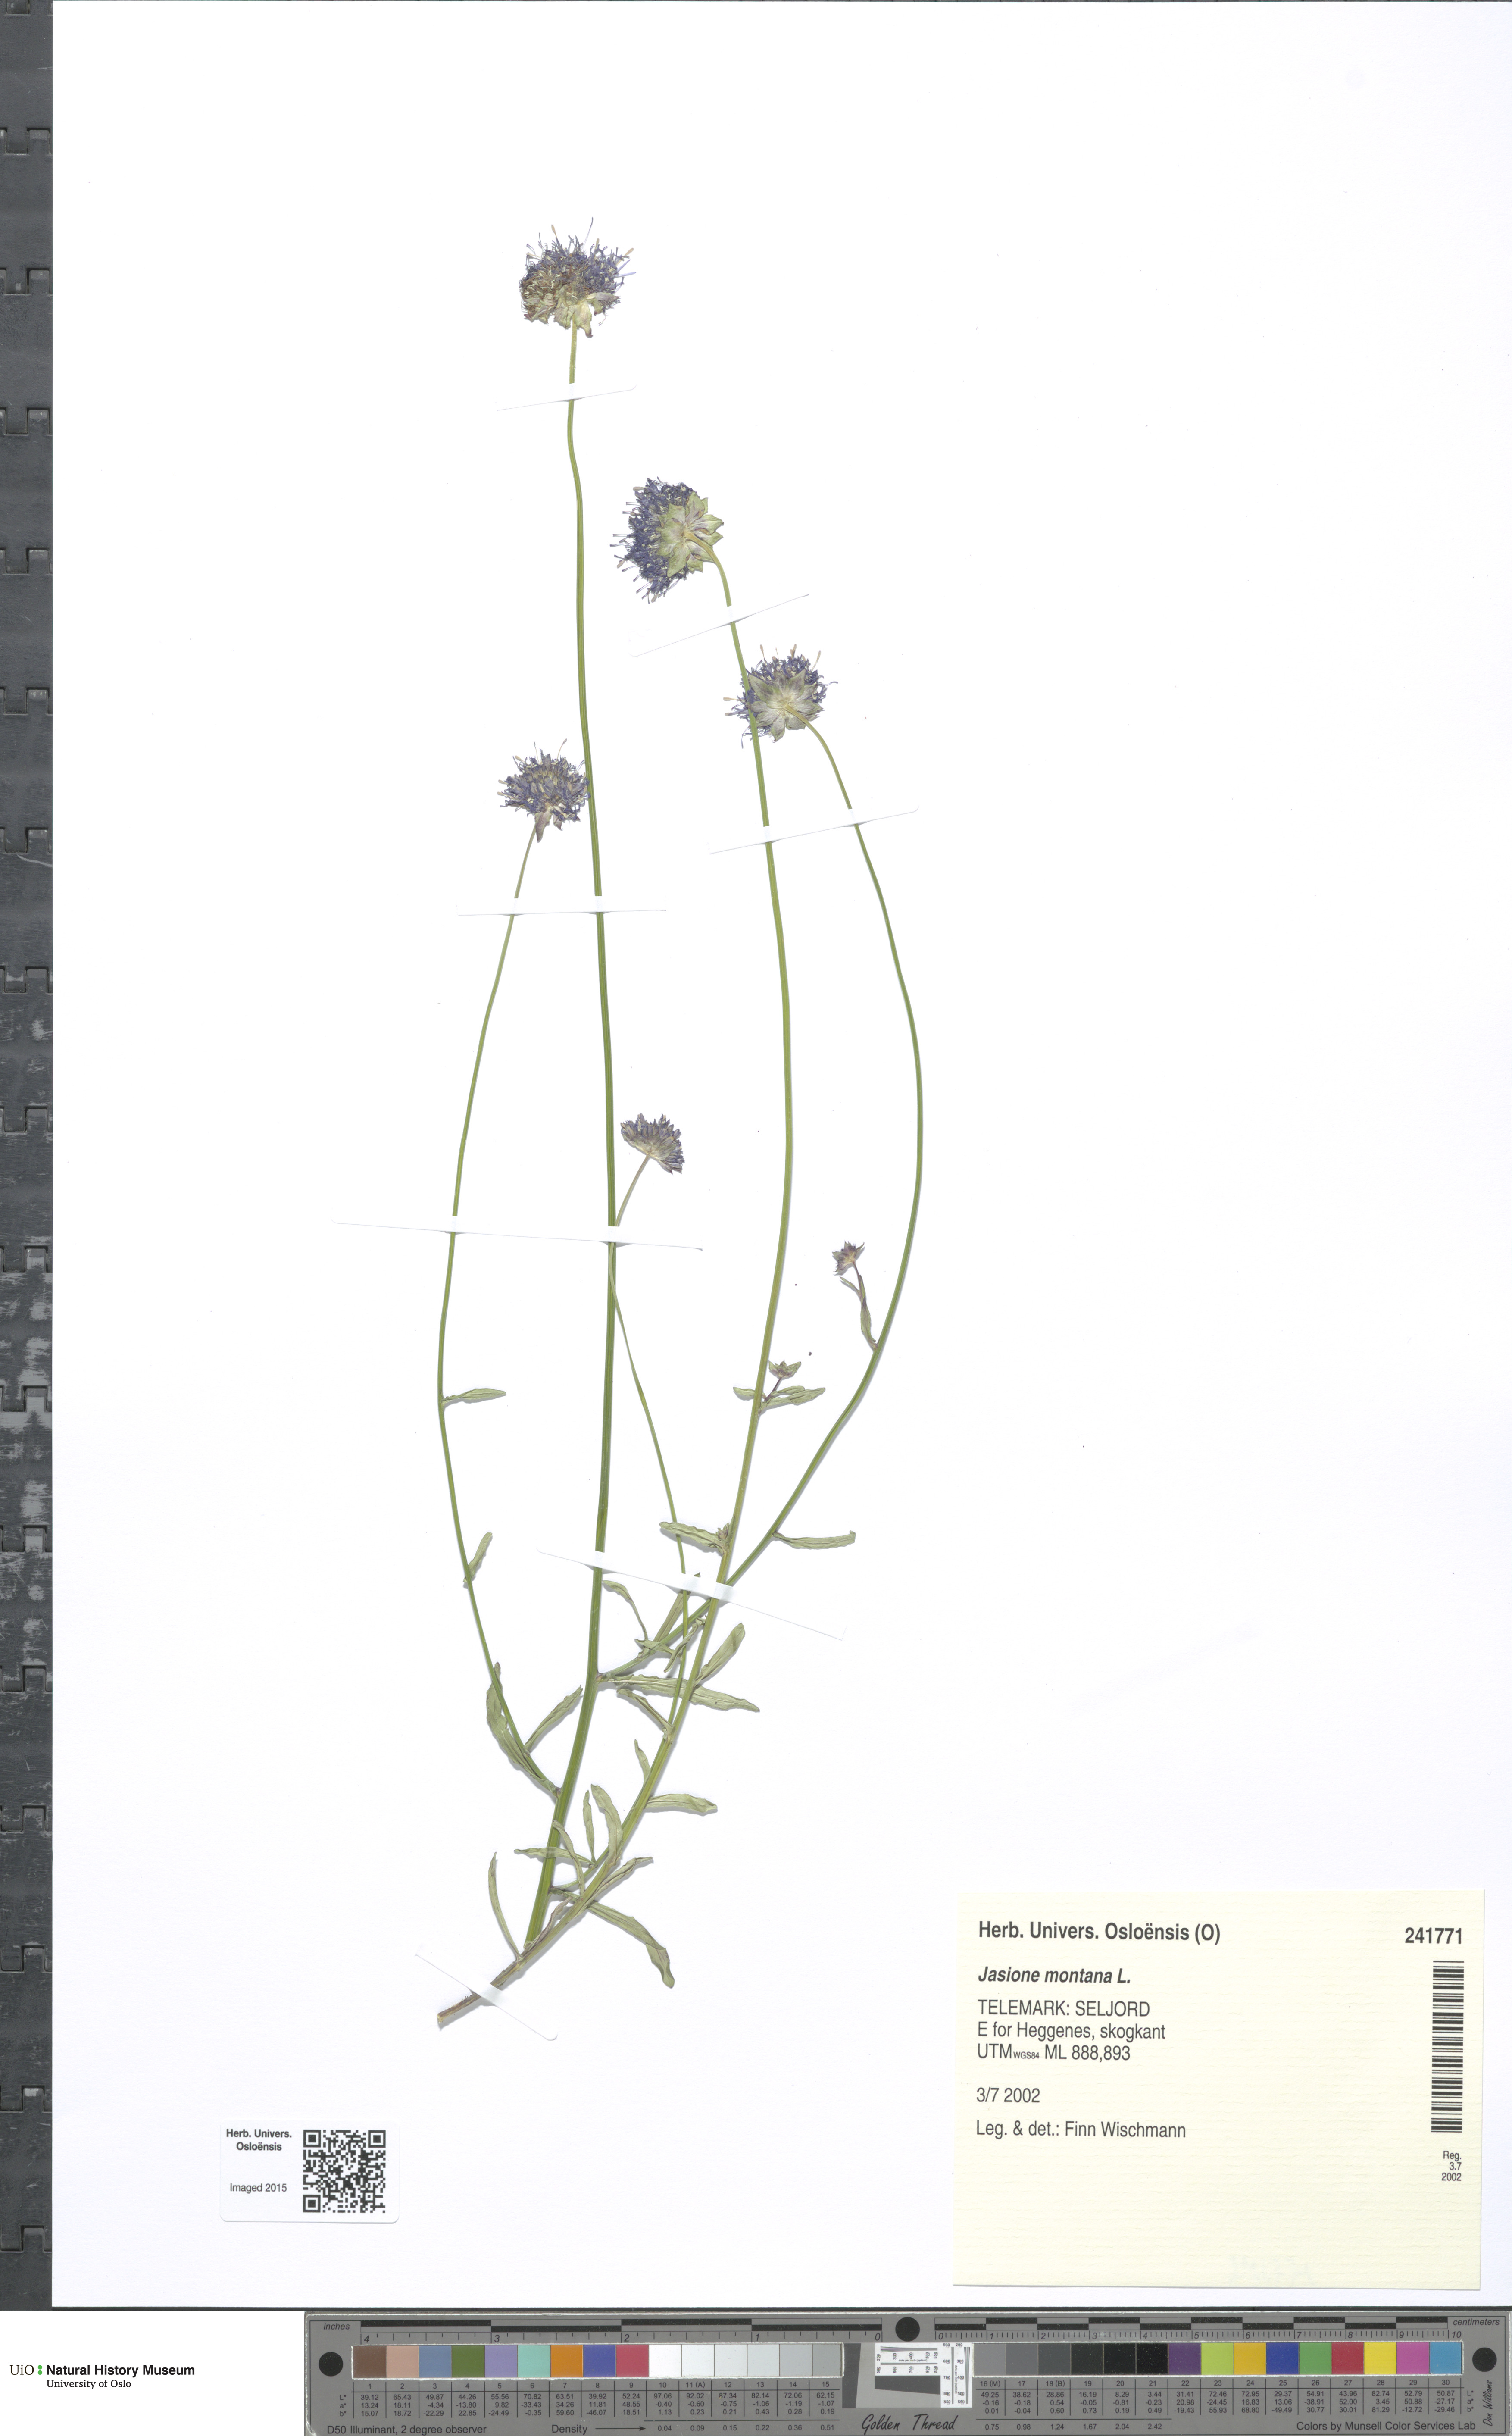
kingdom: Plantae
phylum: Tracheophyta
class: Magnoliopsida
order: Asterales
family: Campanulaceae
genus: Jasione
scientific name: Jasione montana
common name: Sheep's-bit
